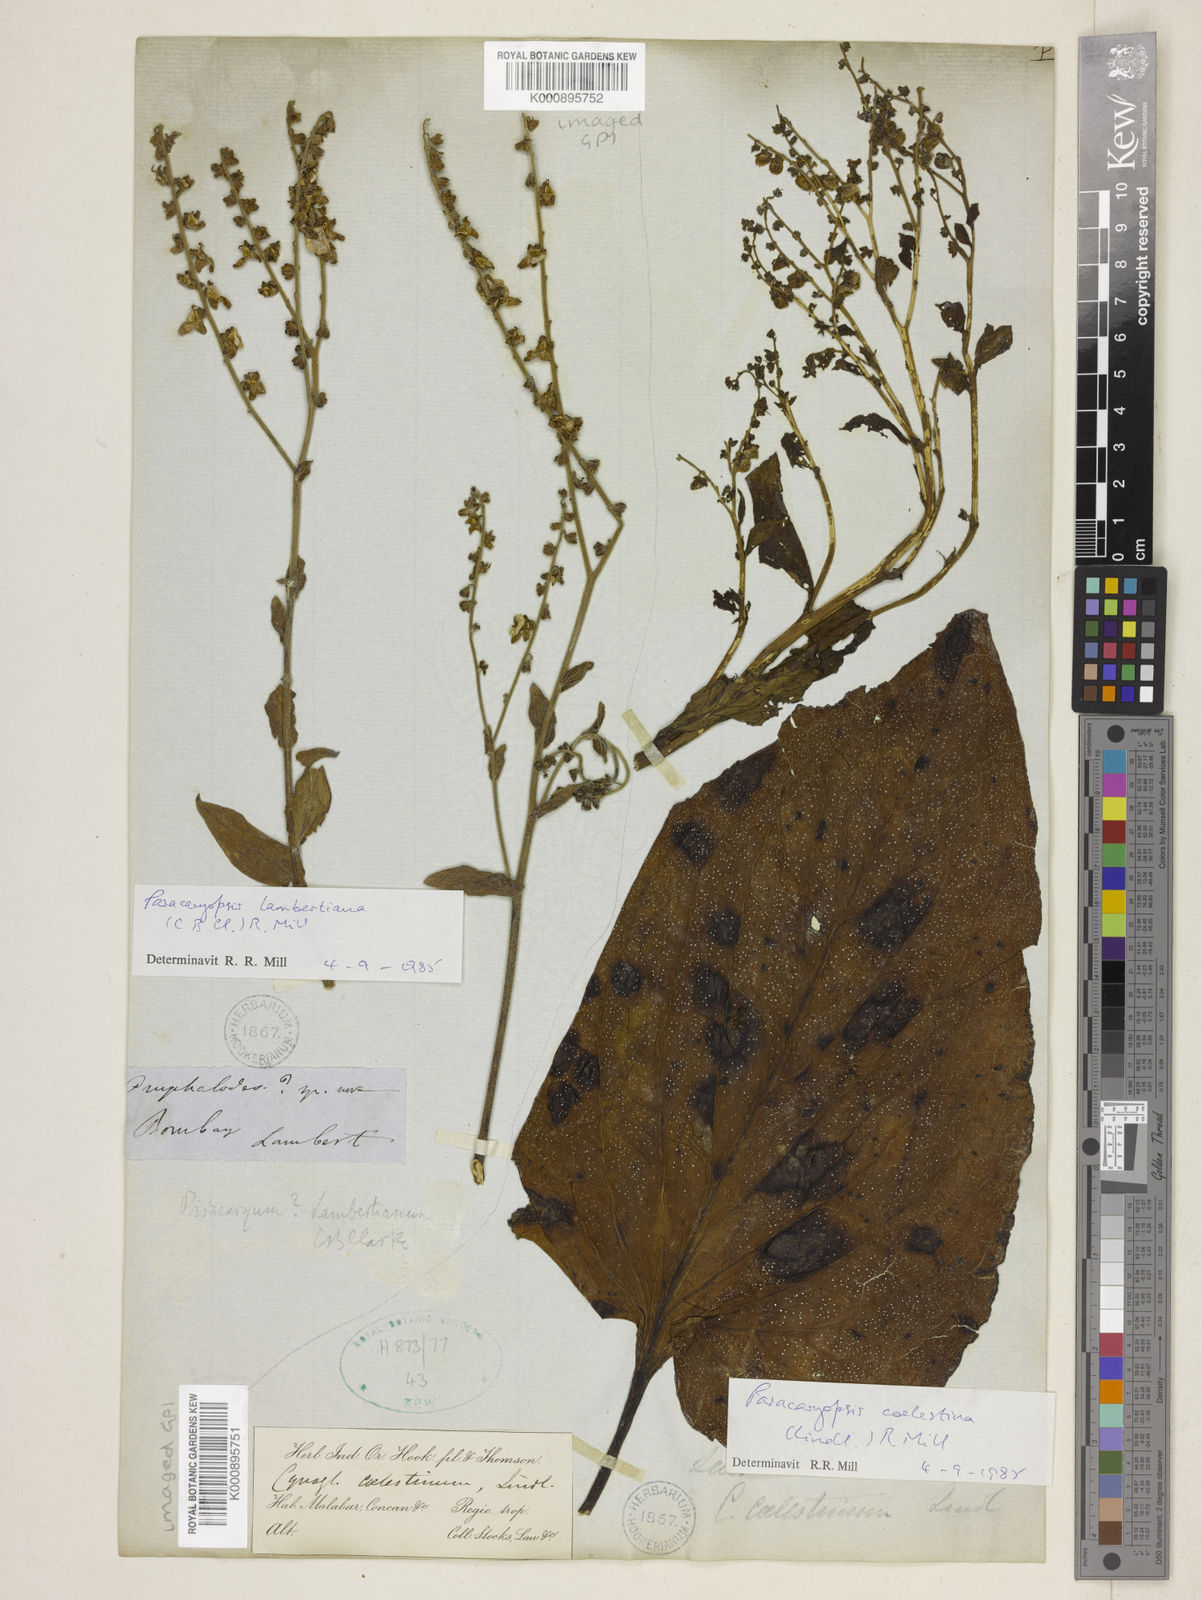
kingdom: Plantae
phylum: Tracheophyta
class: Magnoliopsida
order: Boraginales
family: Boraginaceae
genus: Paracaryum
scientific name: Paracaryum lambertianum
